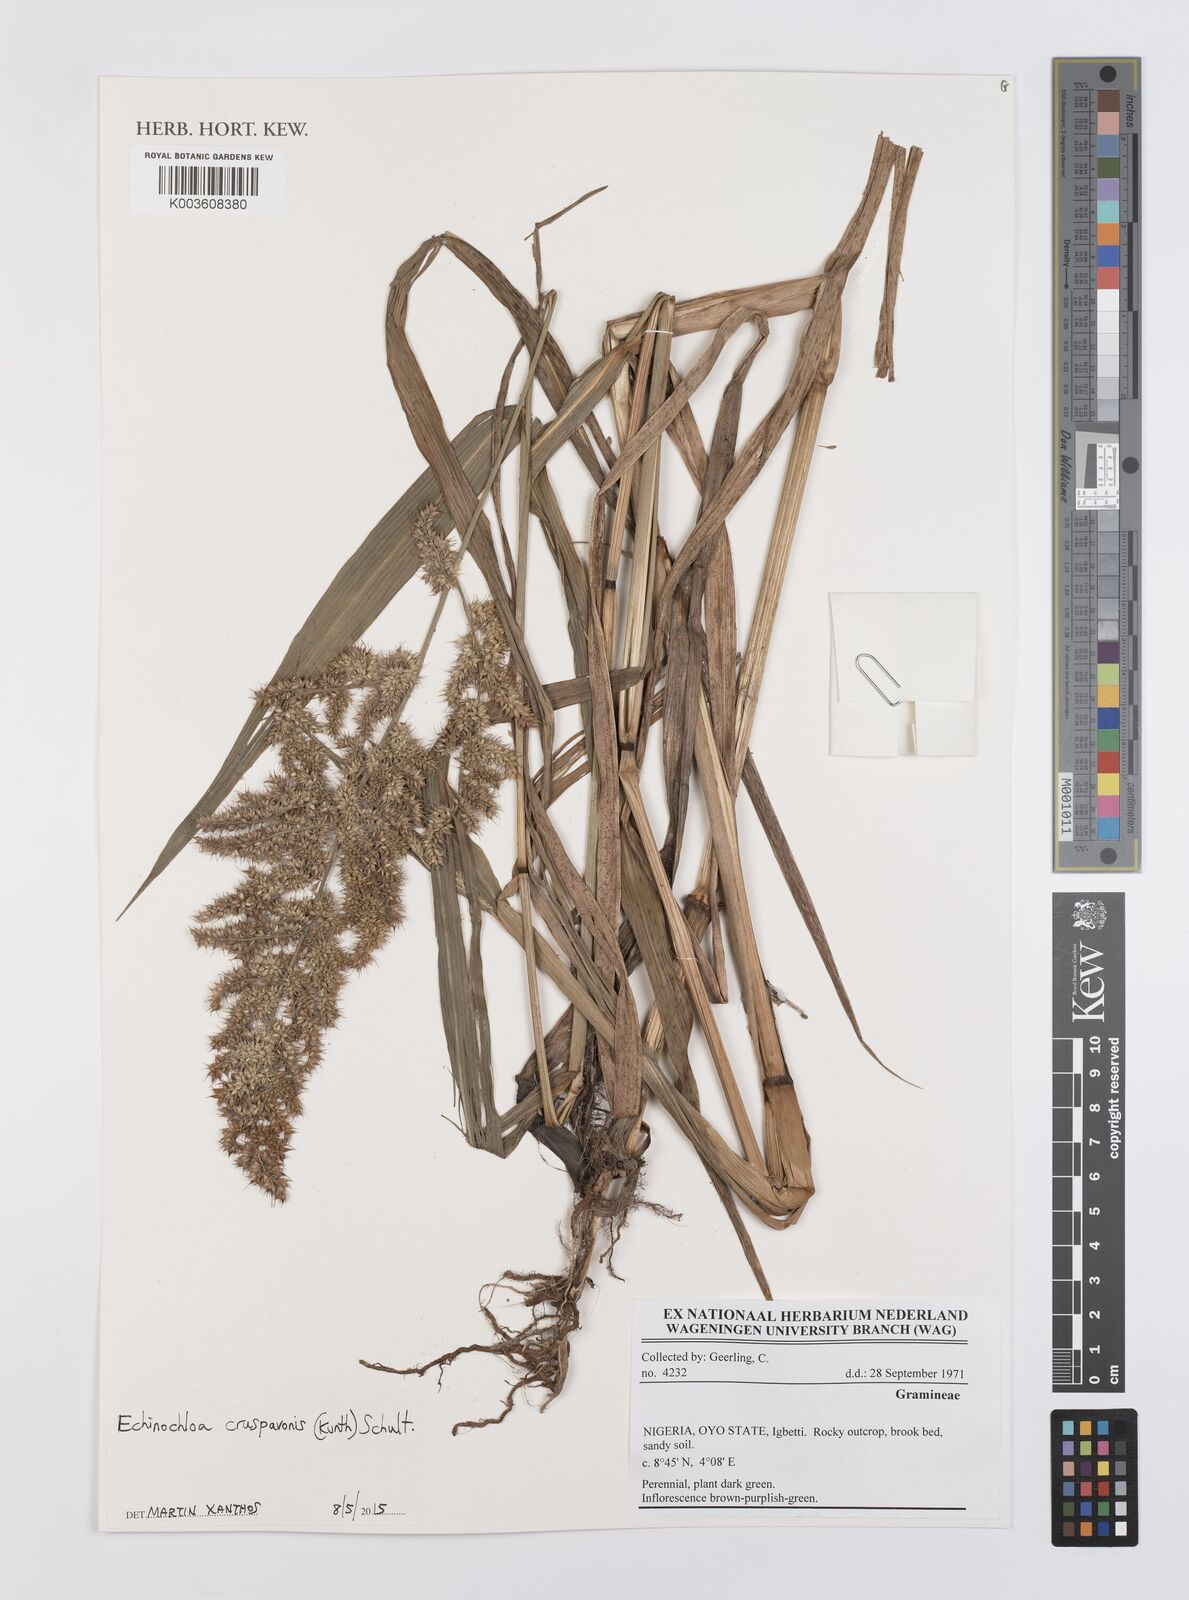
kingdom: Plantae
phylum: Tracheophyta
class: Liliopsida
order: Poales
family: Poaceae
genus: Echinochloa
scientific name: Echinochloa crus-pavonis
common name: Gulf cockspur grass
